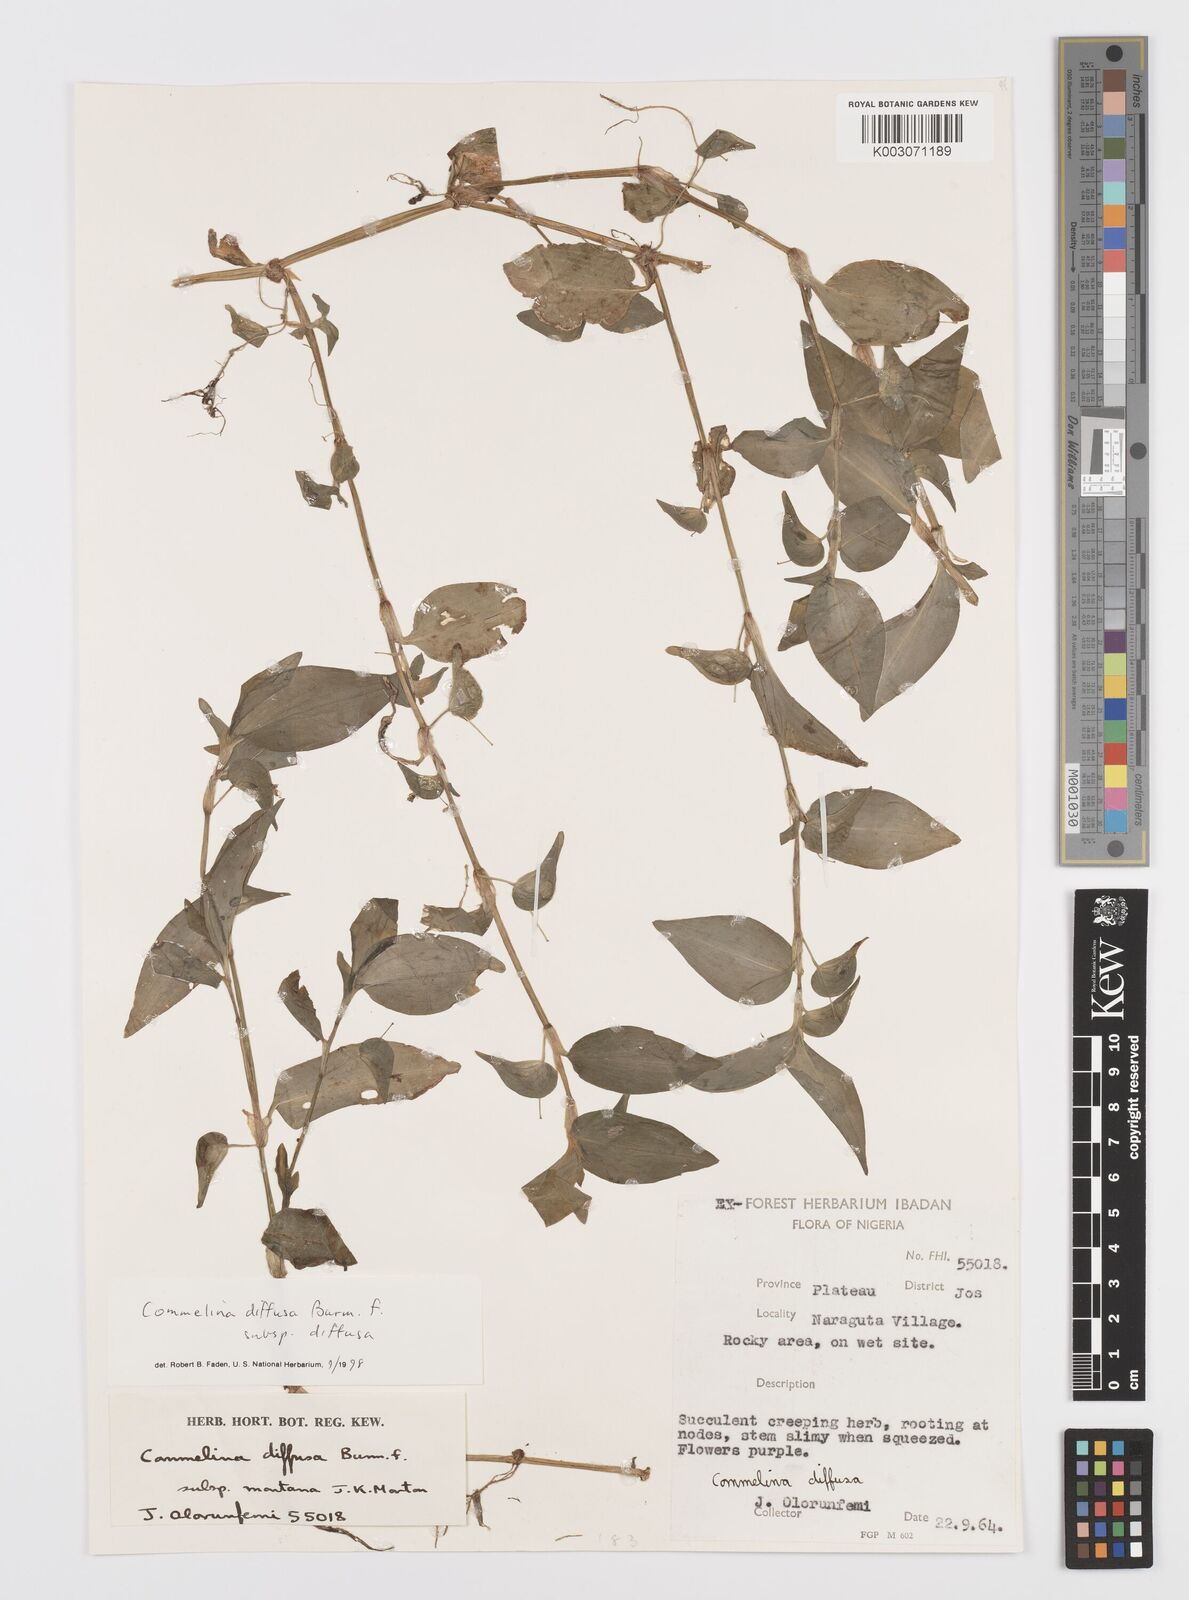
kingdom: Plantae
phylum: Tracheophyta
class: Liliopsida
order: Commelinales
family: Commelinaceae
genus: Commelina
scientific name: Commelina diffusa
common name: Climbing dayflower
